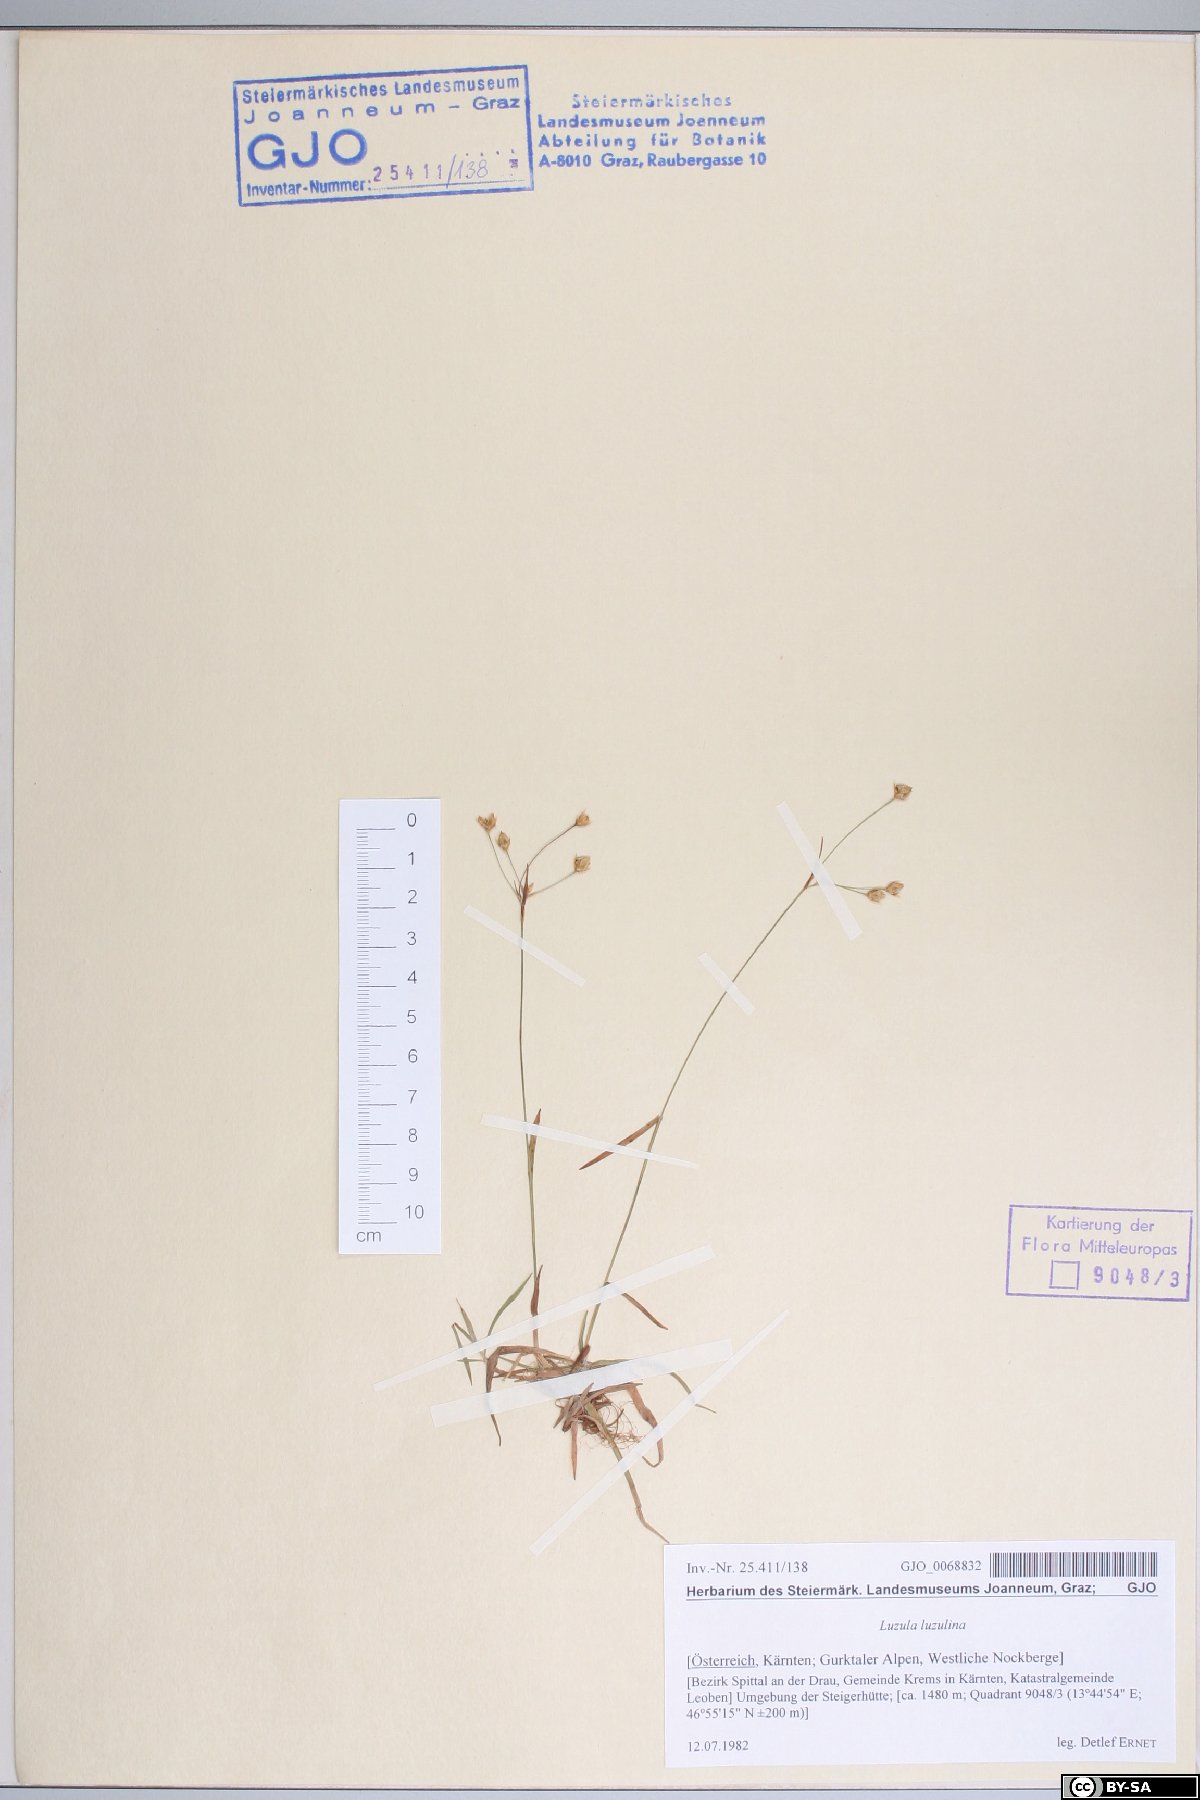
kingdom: Plantae
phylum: Tracheophyta
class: Liliopsida
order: Poales
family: Juncaceae
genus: Luzula
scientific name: Luzula luzulina
